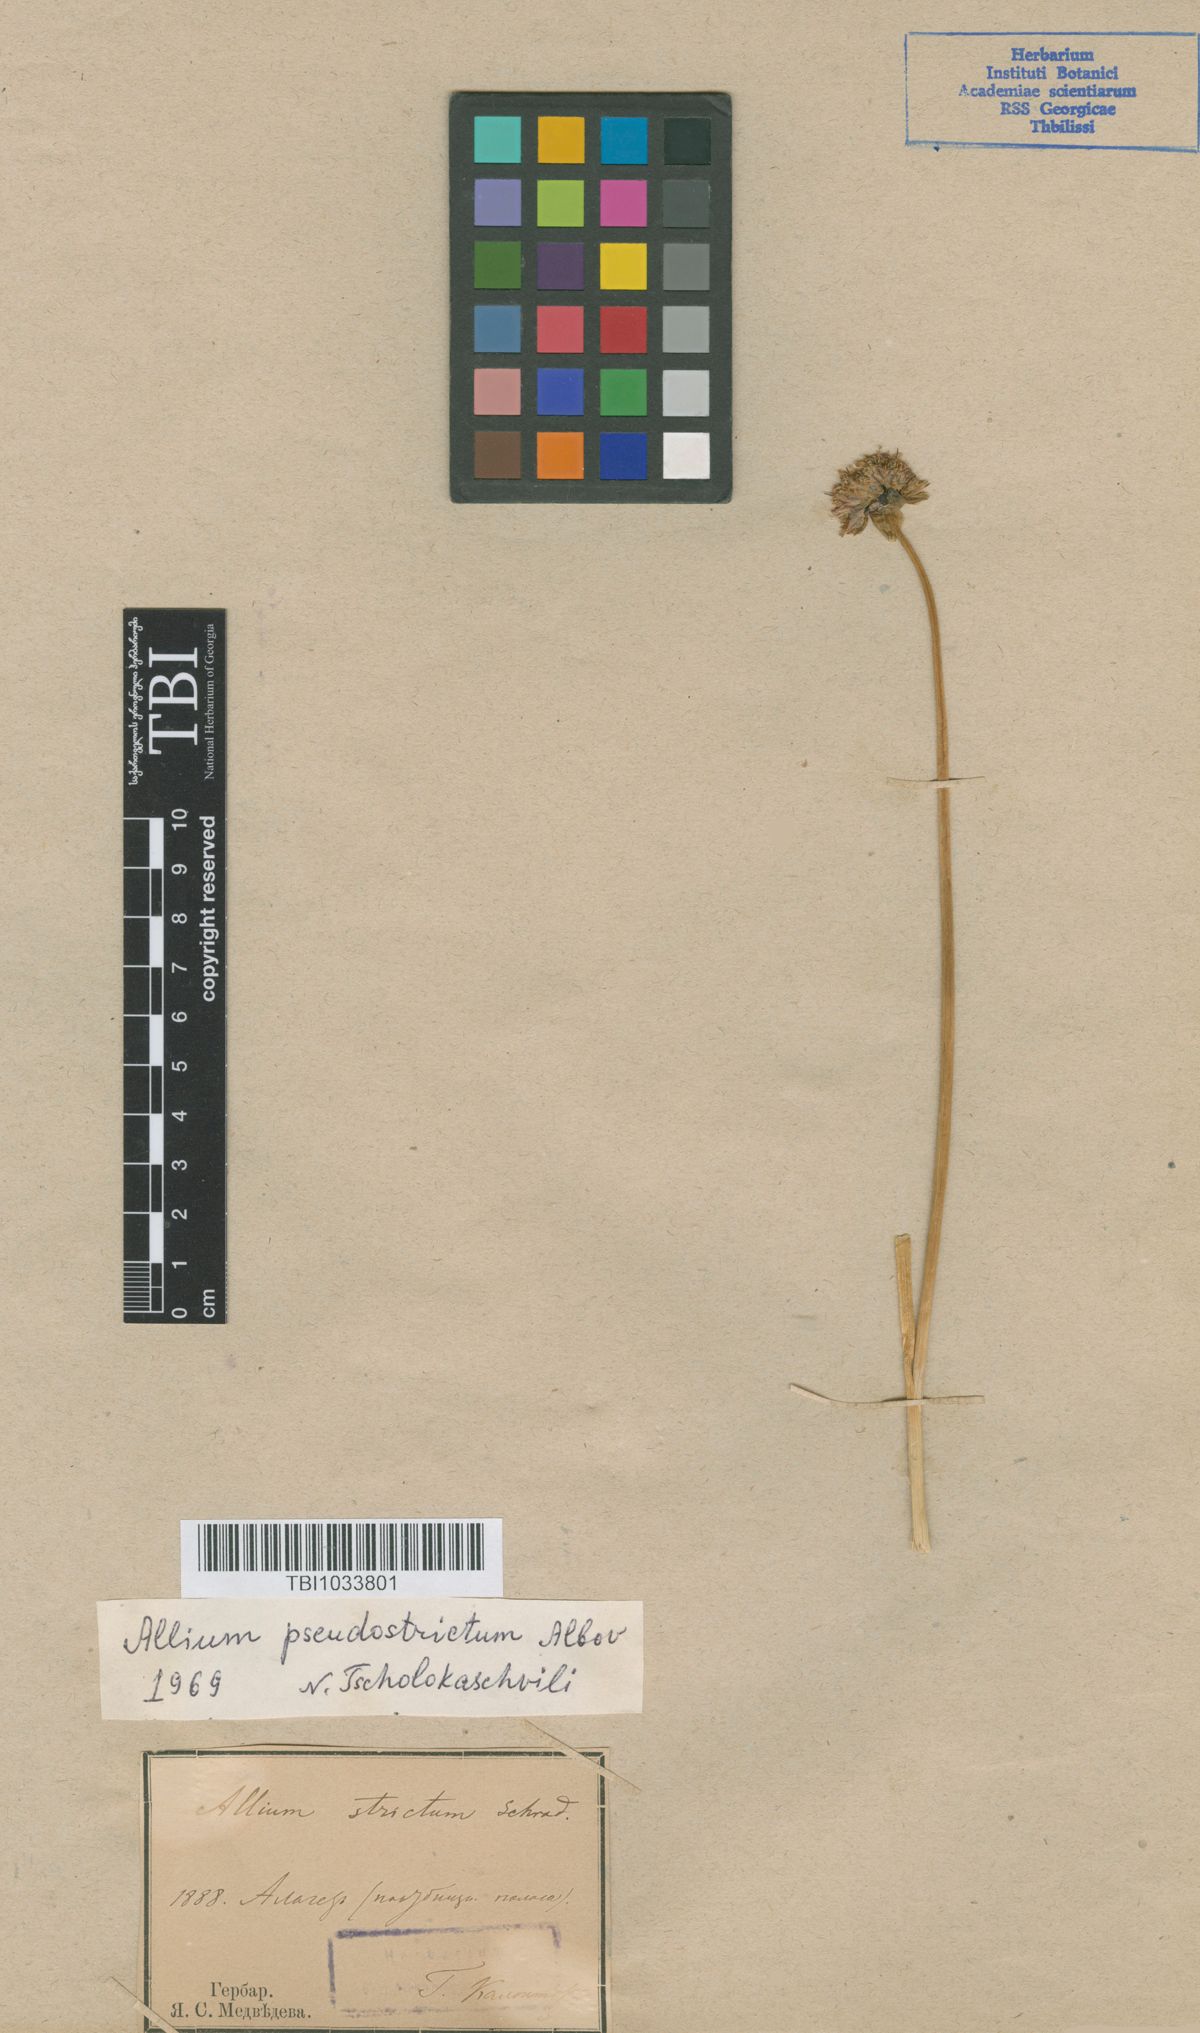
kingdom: Plantae
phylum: Tracheophyta
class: Liliopsida
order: Asparagales
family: Amaryllidaceae
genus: Allium
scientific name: Allium pseudostrictum
